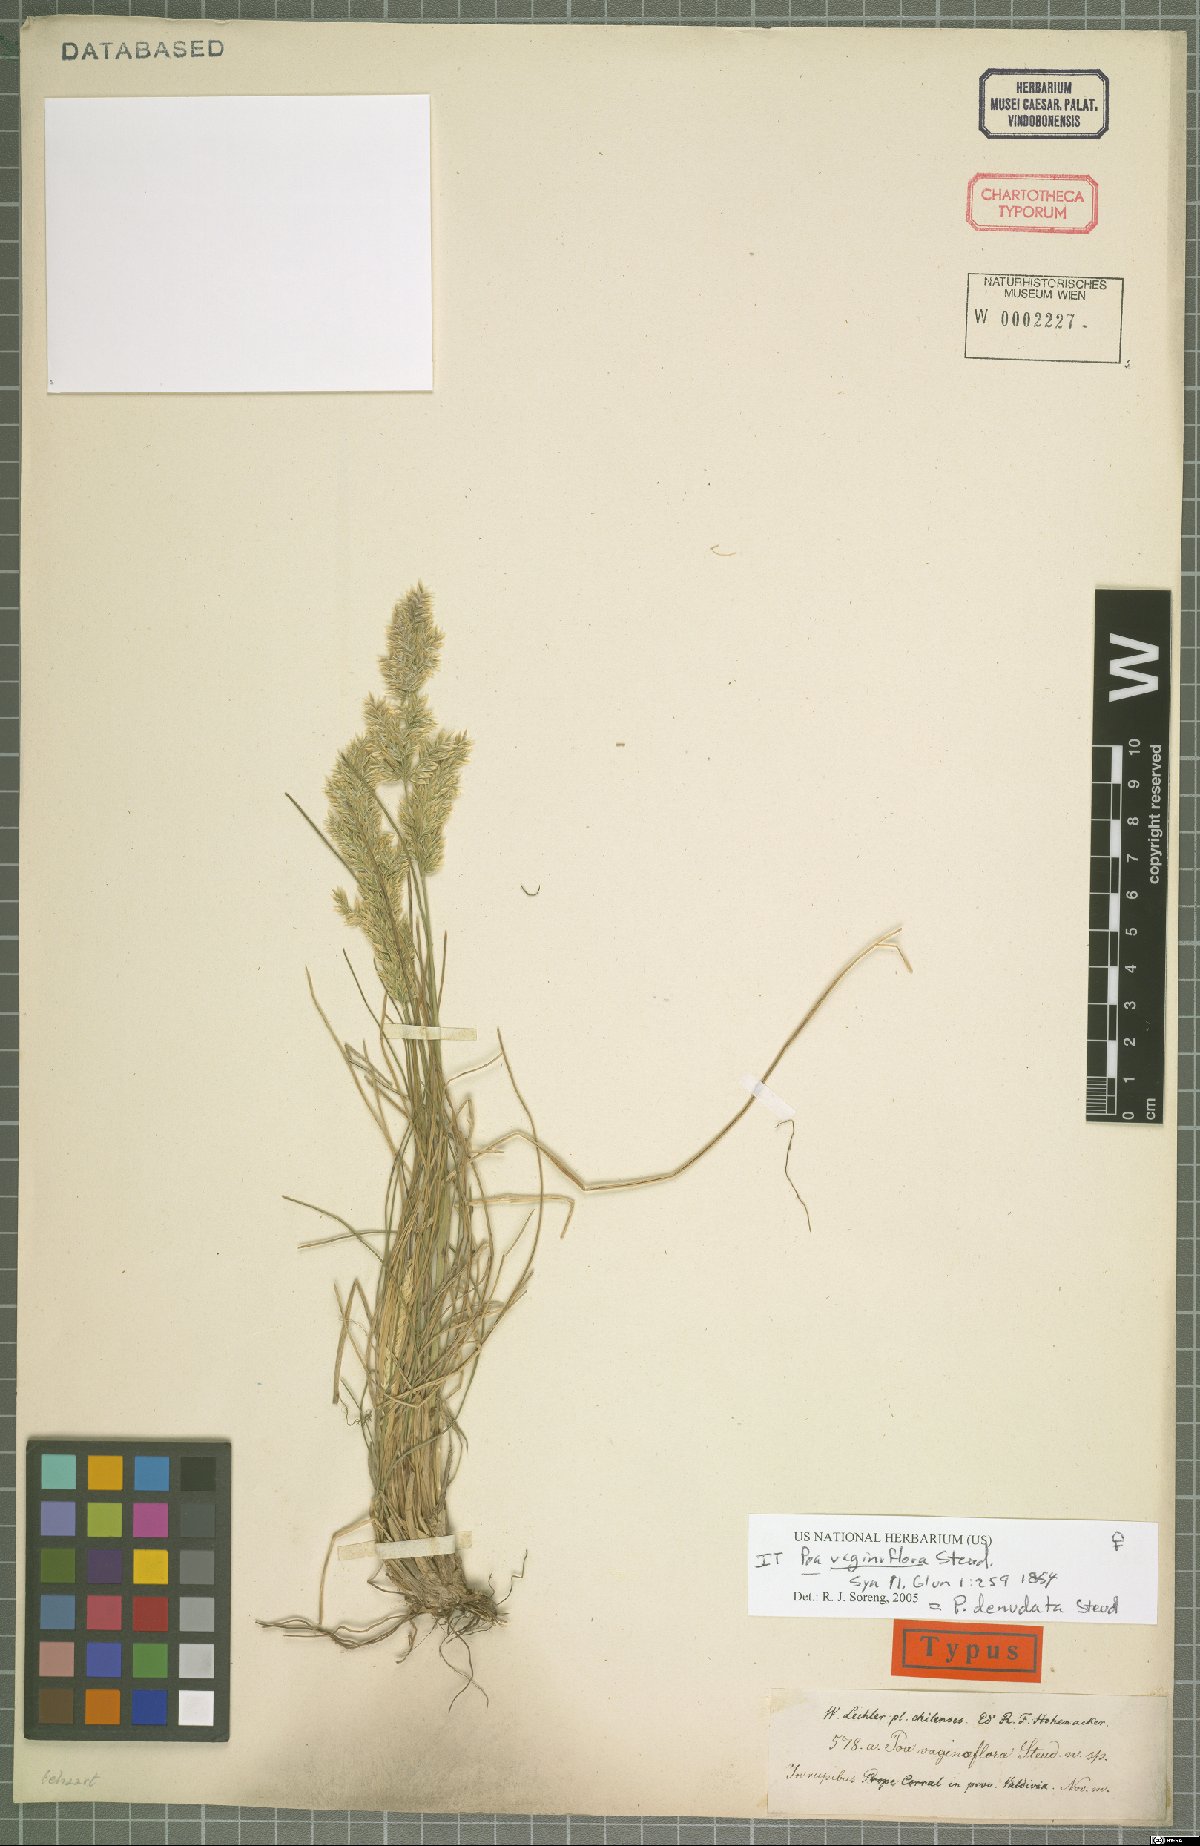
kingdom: Plantae
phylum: Tracheophyta
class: Liliopsida
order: Poales
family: Poaceae
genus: Poa
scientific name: Poa denudata
